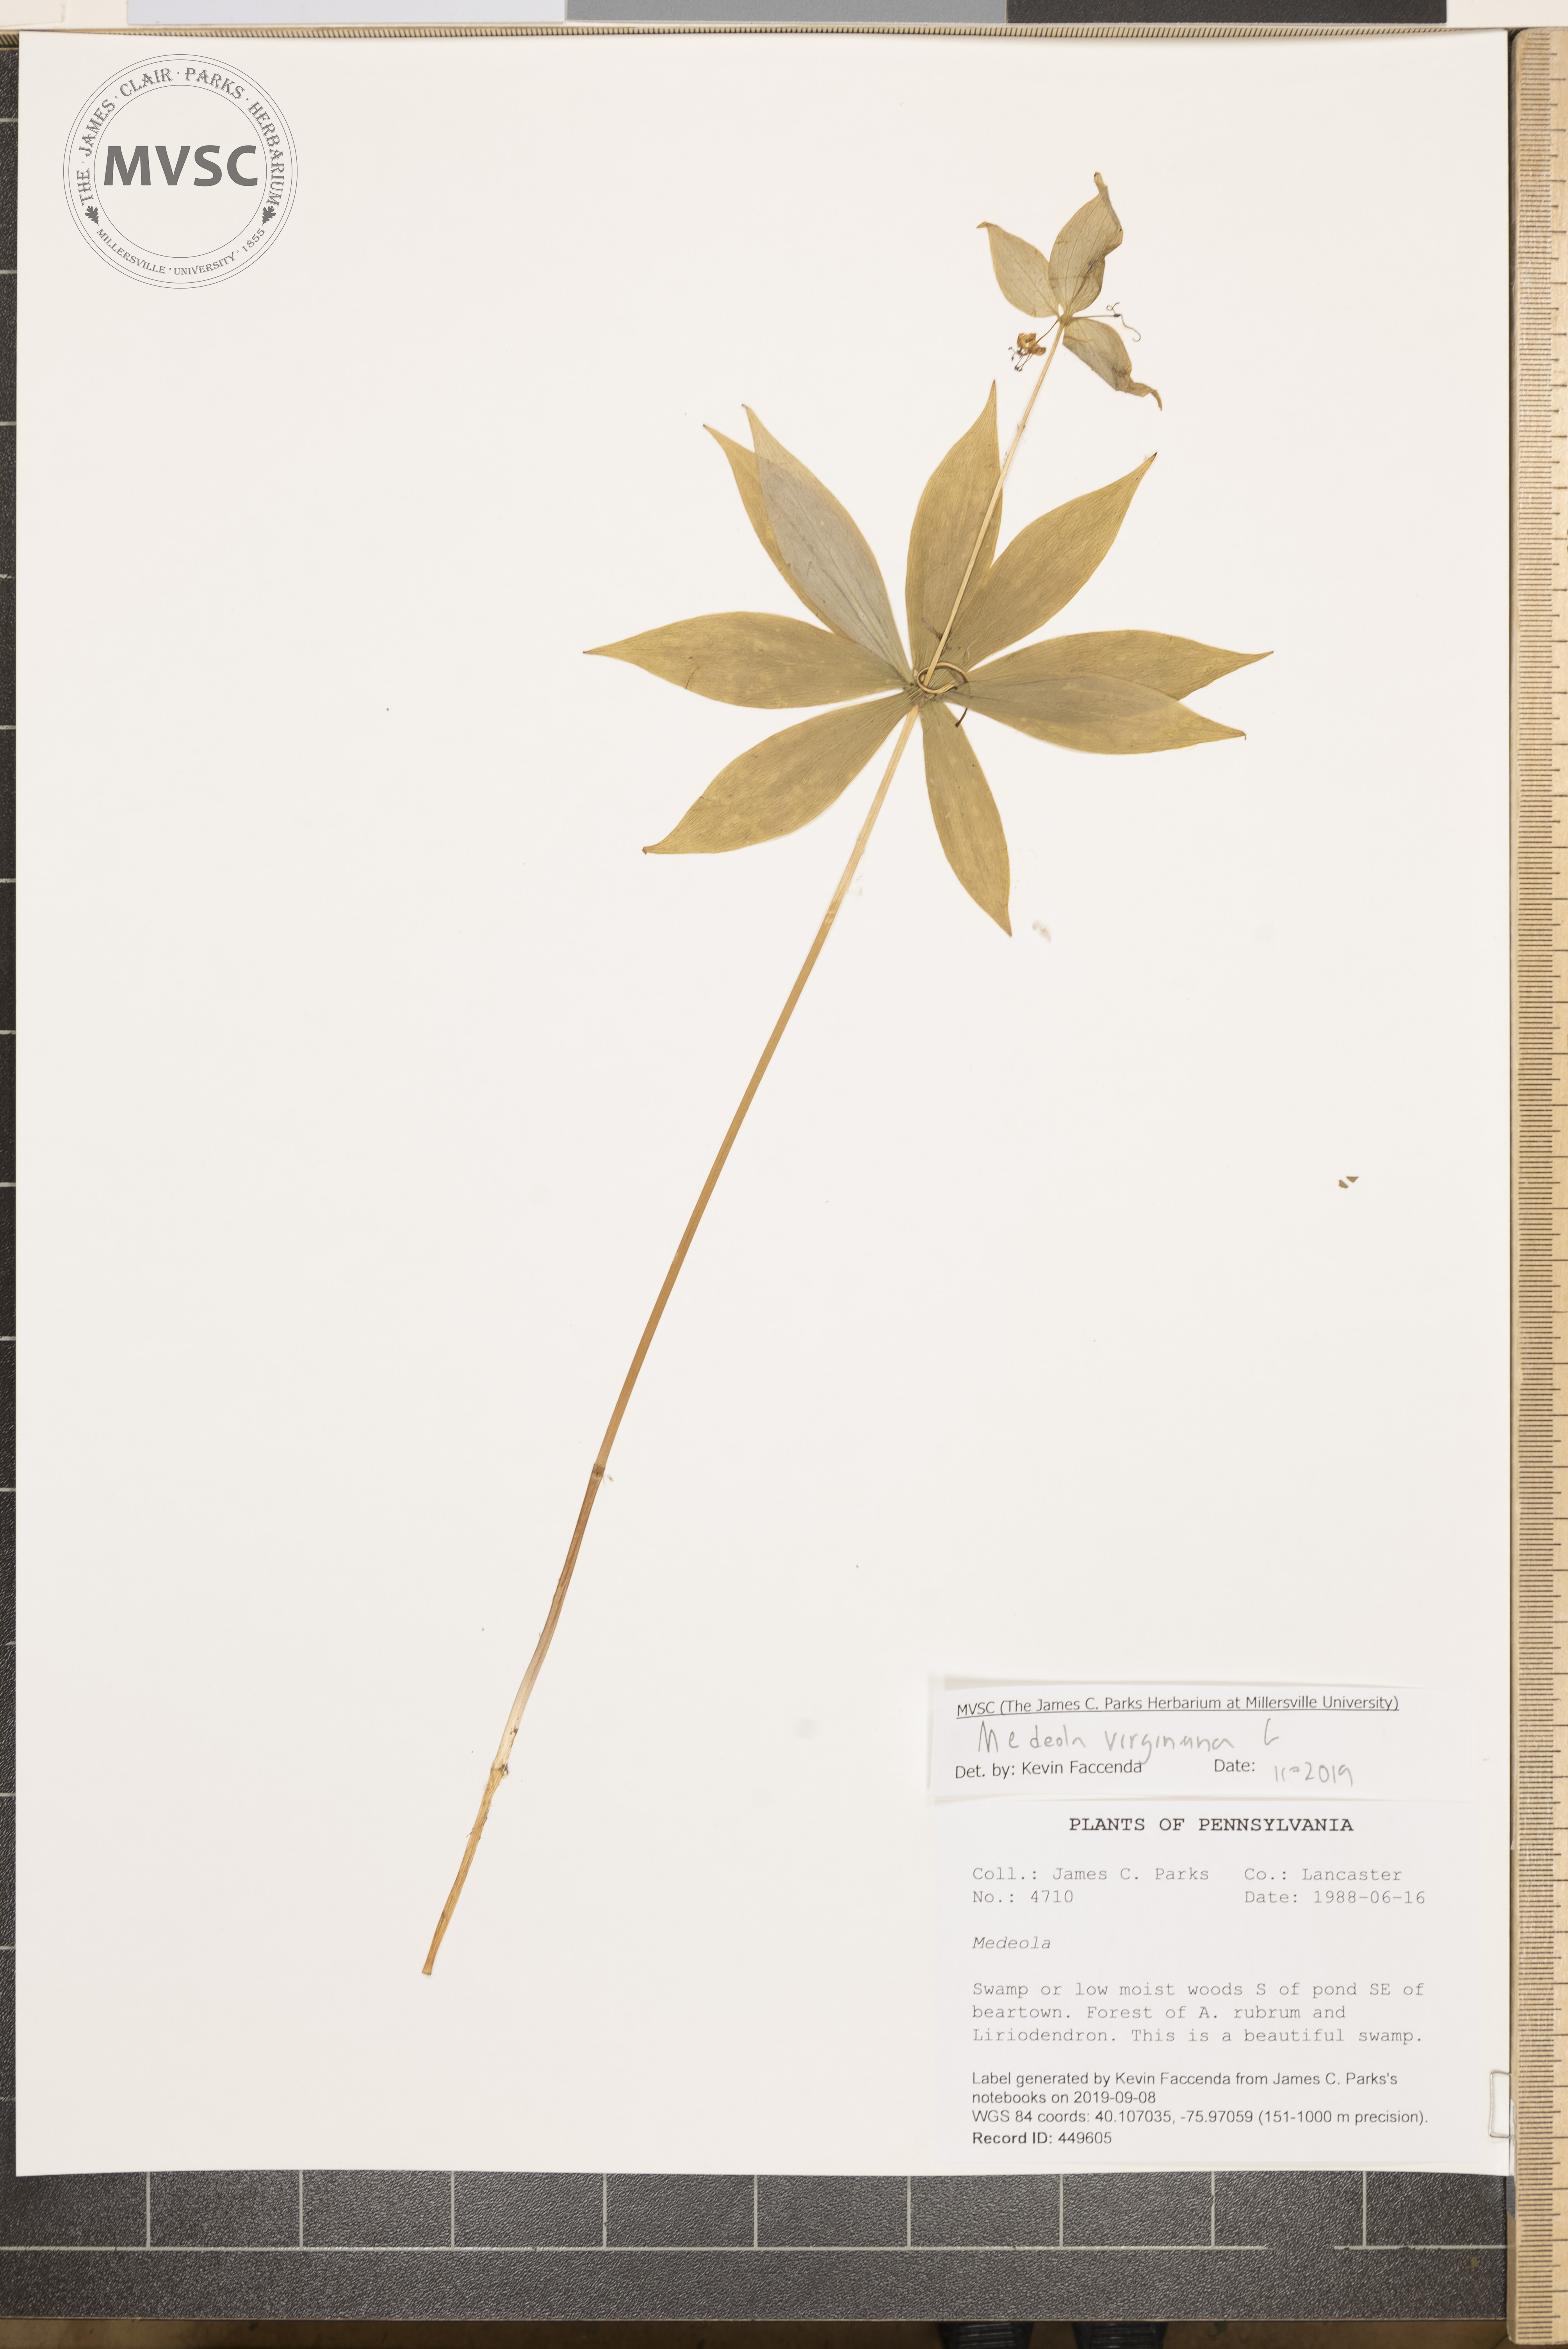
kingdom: Plantae
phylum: Tracheophyta
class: Liliopsida
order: Liliales
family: Liliaceae
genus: Medeola
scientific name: Medeola virginiana
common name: Indian cucumber-root
